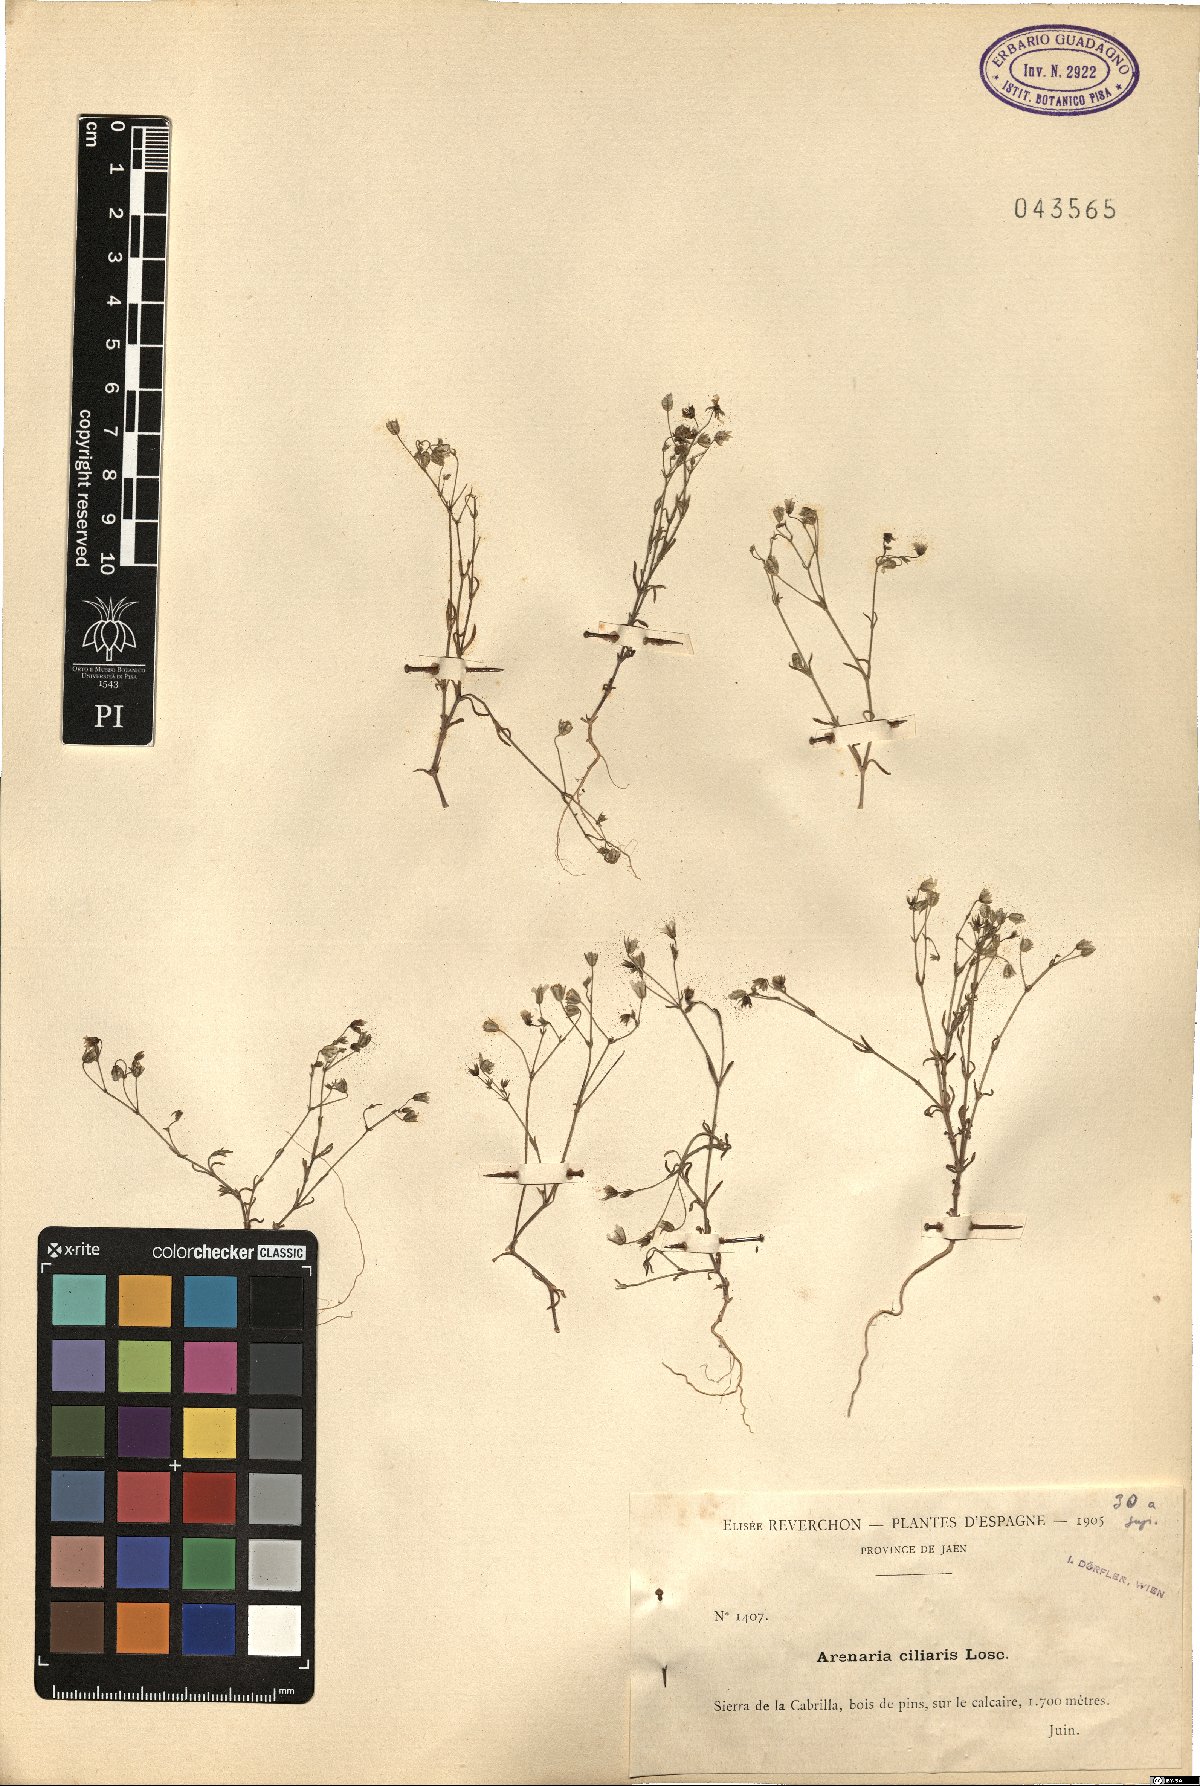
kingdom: Plantae
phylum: Tracheophyta
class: Magnoliopsida
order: Caryophyllales
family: Caryophyllaceae
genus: Arenaria
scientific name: Arenaria obtusiflora
